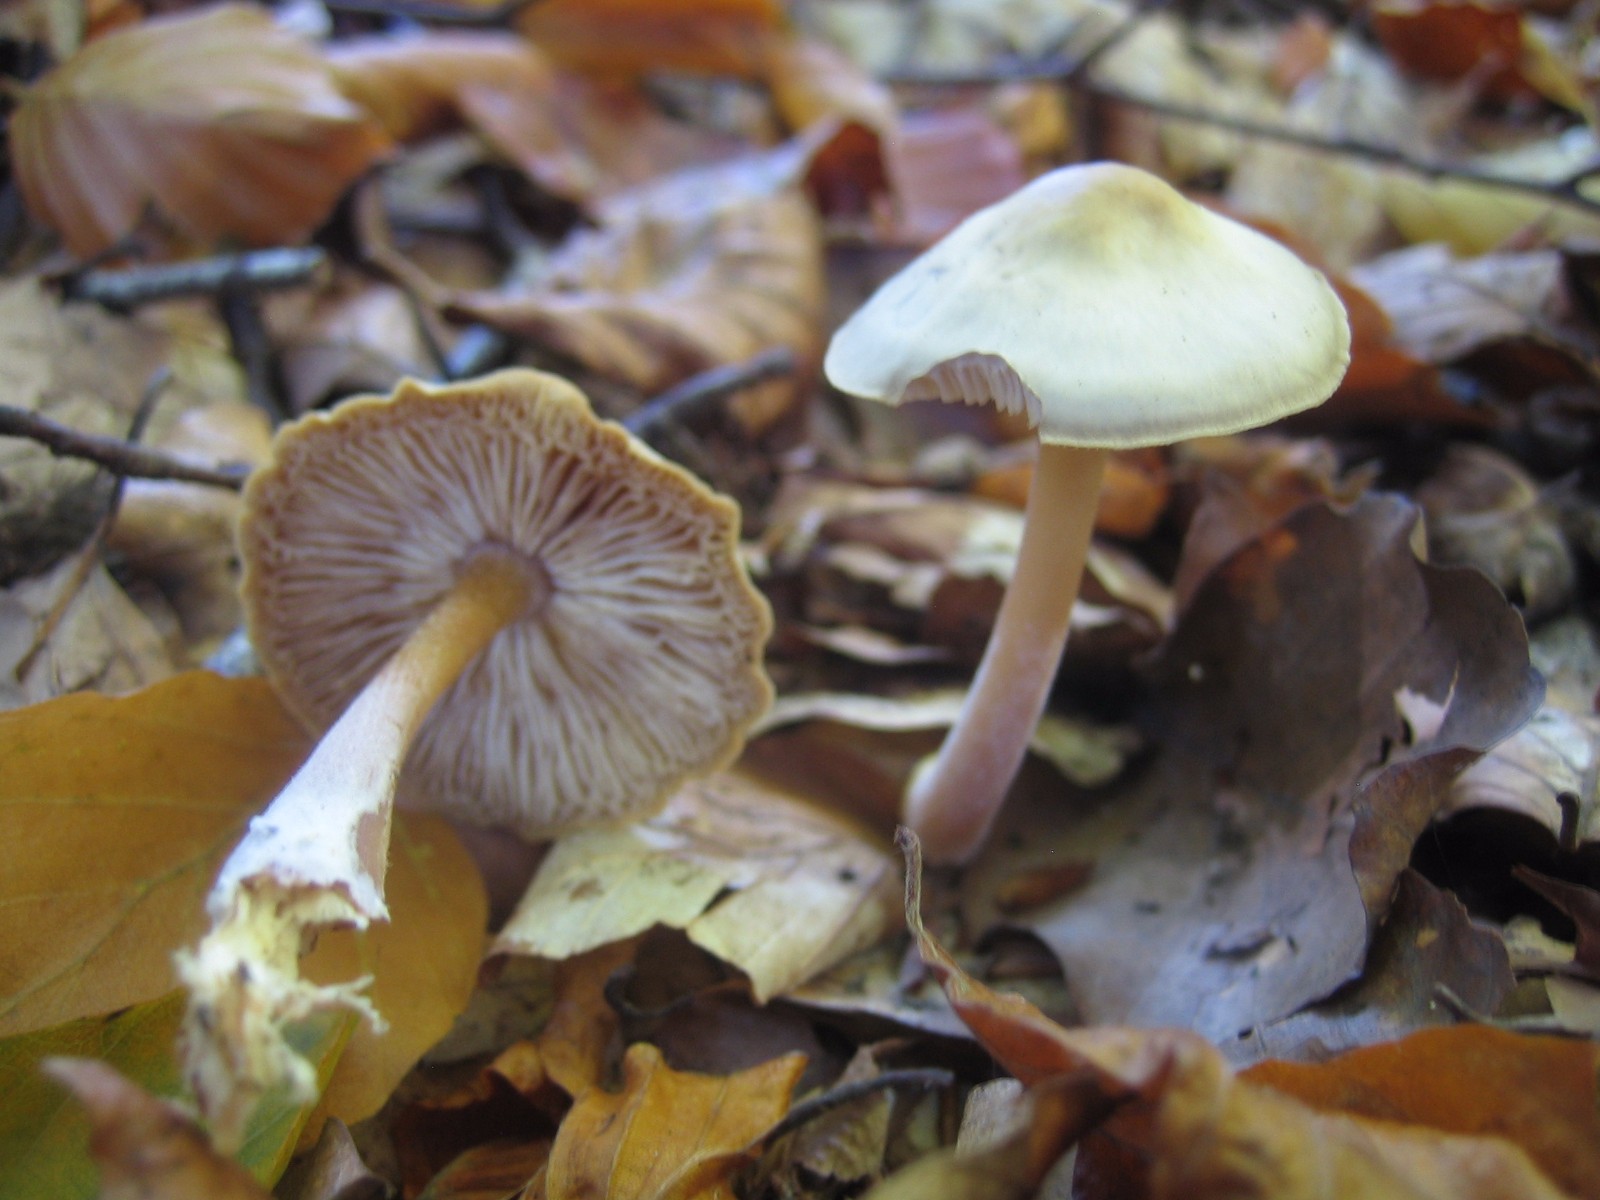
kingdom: Fungi
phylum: Basidiomycota
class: Agaricomycetes
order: Agaricales
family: Omphalotaceae
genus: Rhodocollybia
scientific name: Rhodocollybia asema
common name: horngrå fladhat
